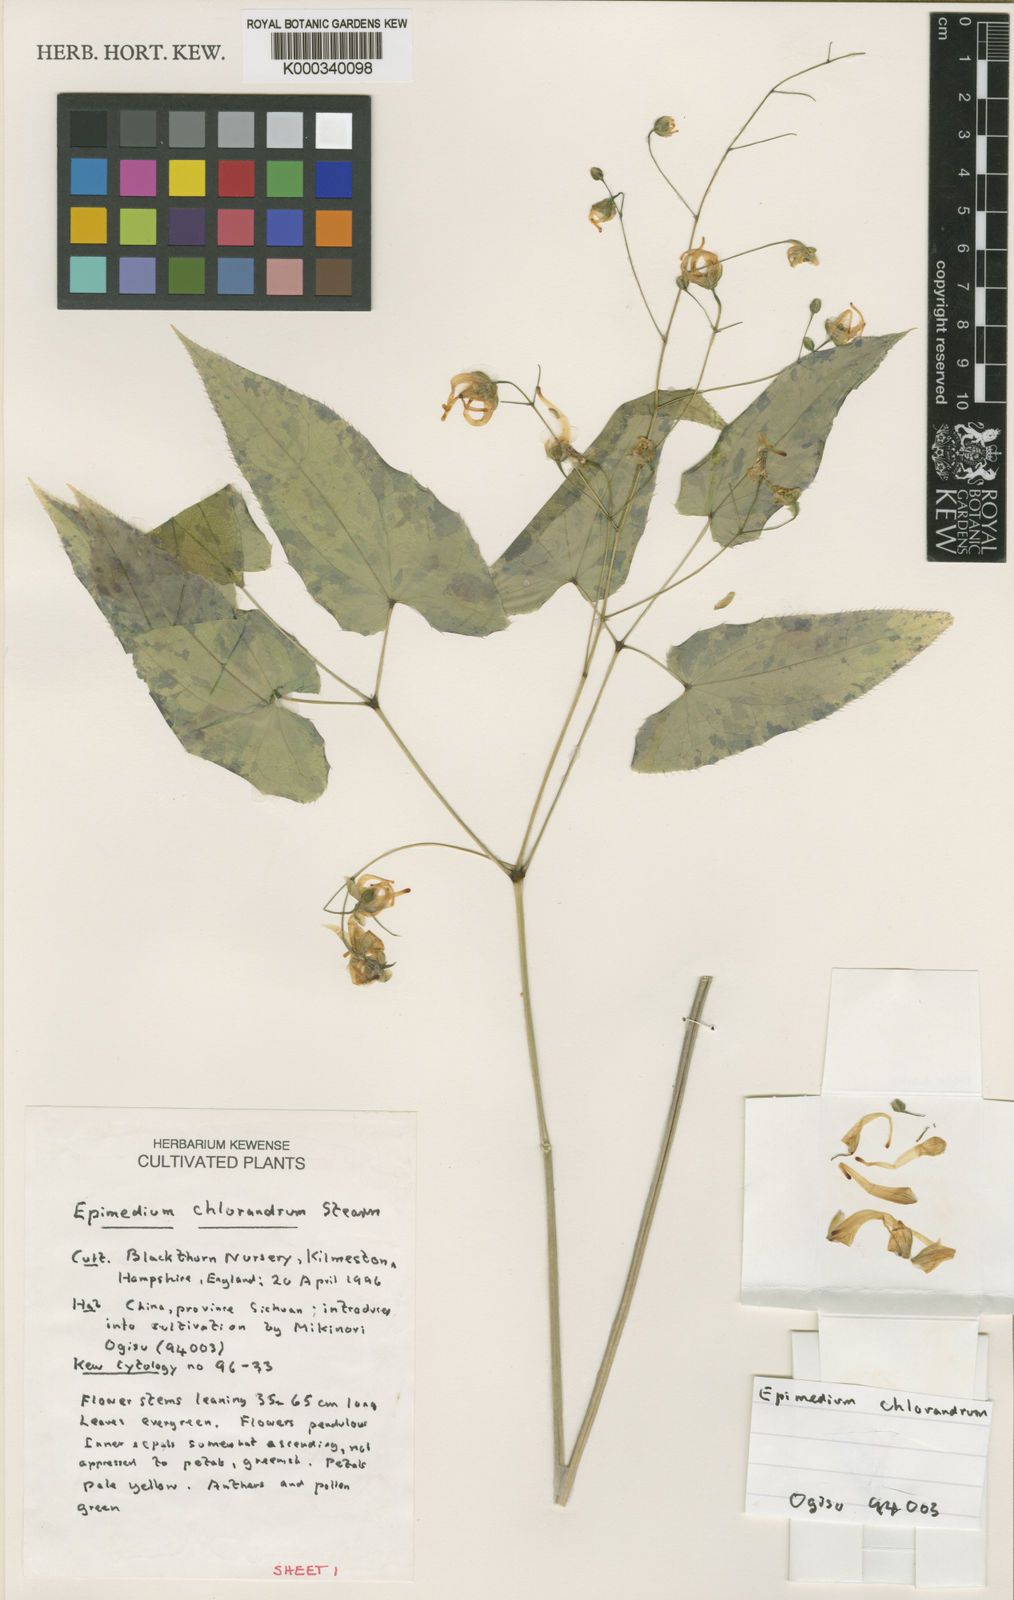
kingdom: Plantae
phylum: Tracheophyta
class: Magnoliopsida
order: Ranunculales
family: Berberidaceae
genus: Epimedium
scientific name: Epimedium acuminatum
